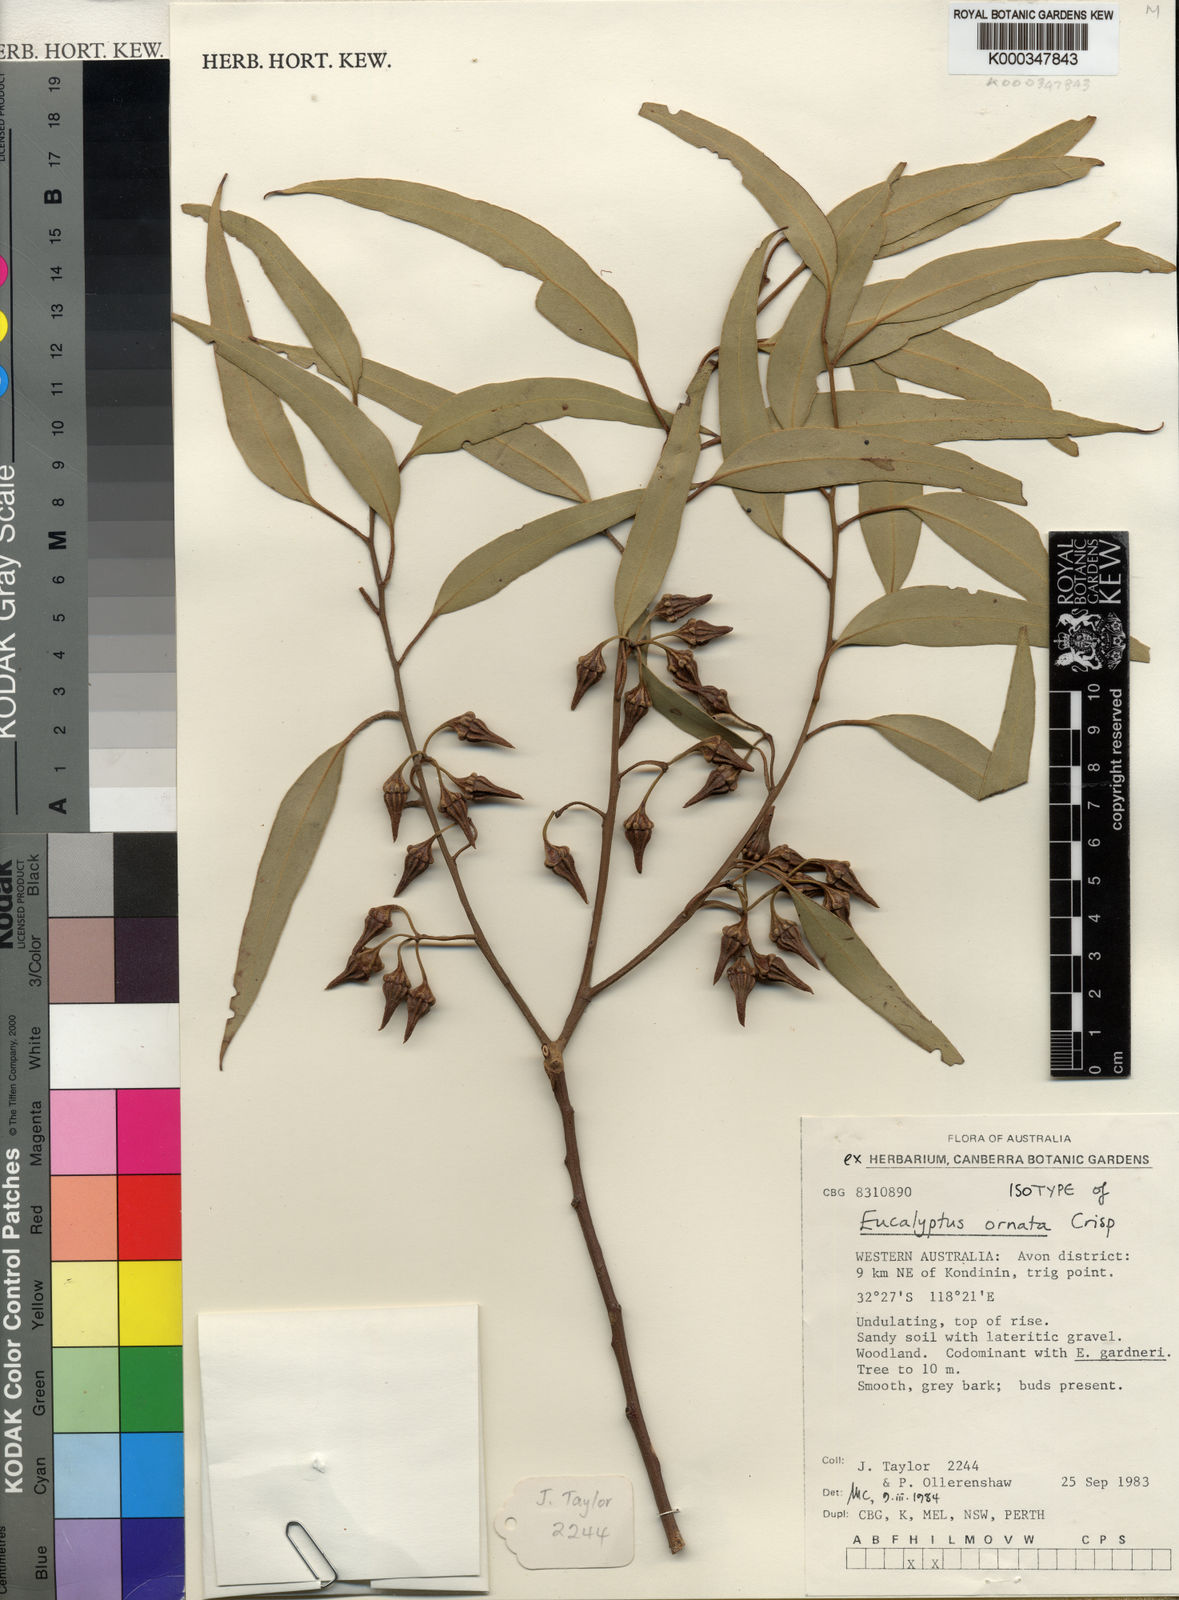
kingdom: Plantae
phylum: Tracheophyta
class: Magnoliopsida
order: Myrtales
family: Myrtaceae
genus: Eucalyptus
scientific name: Eucalyptus ornata
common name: Ornamental silver mallet
